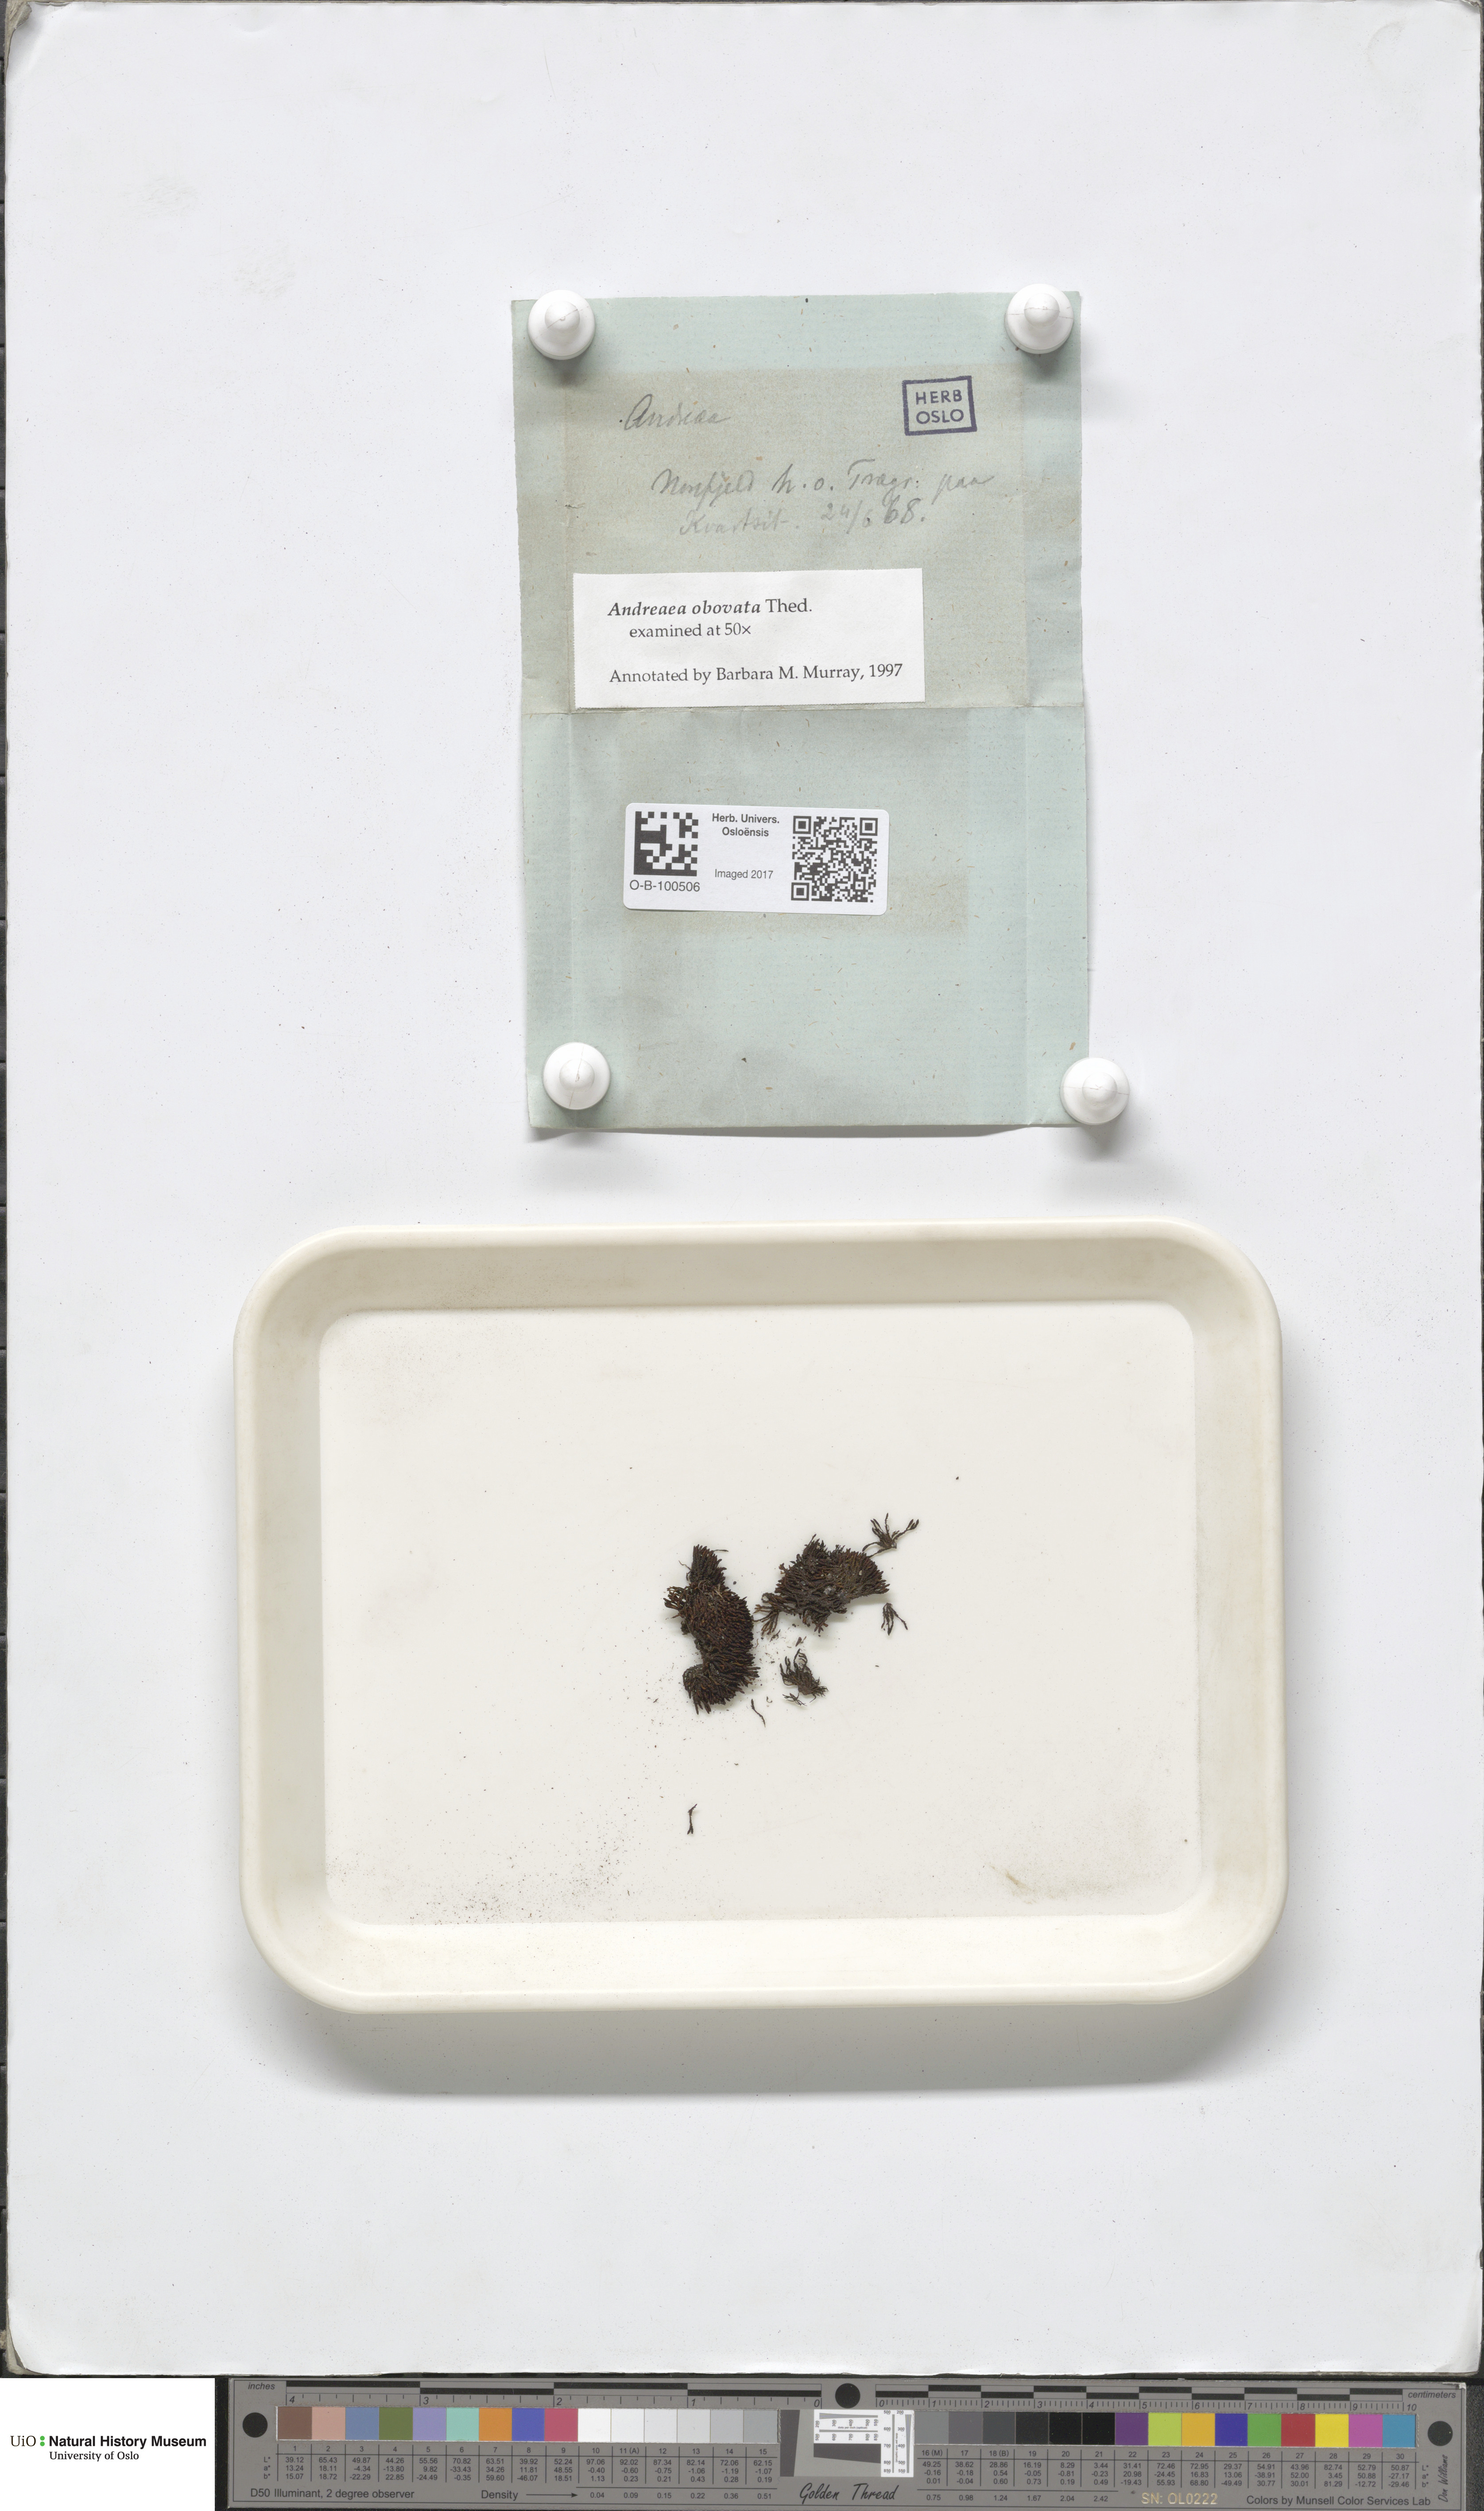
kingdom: Plantae
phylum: Bryophyta
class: Andreaeopsida
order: Andreaeales
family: Andreaeaceae
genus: Andreaea
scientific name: Andreaea alpina
